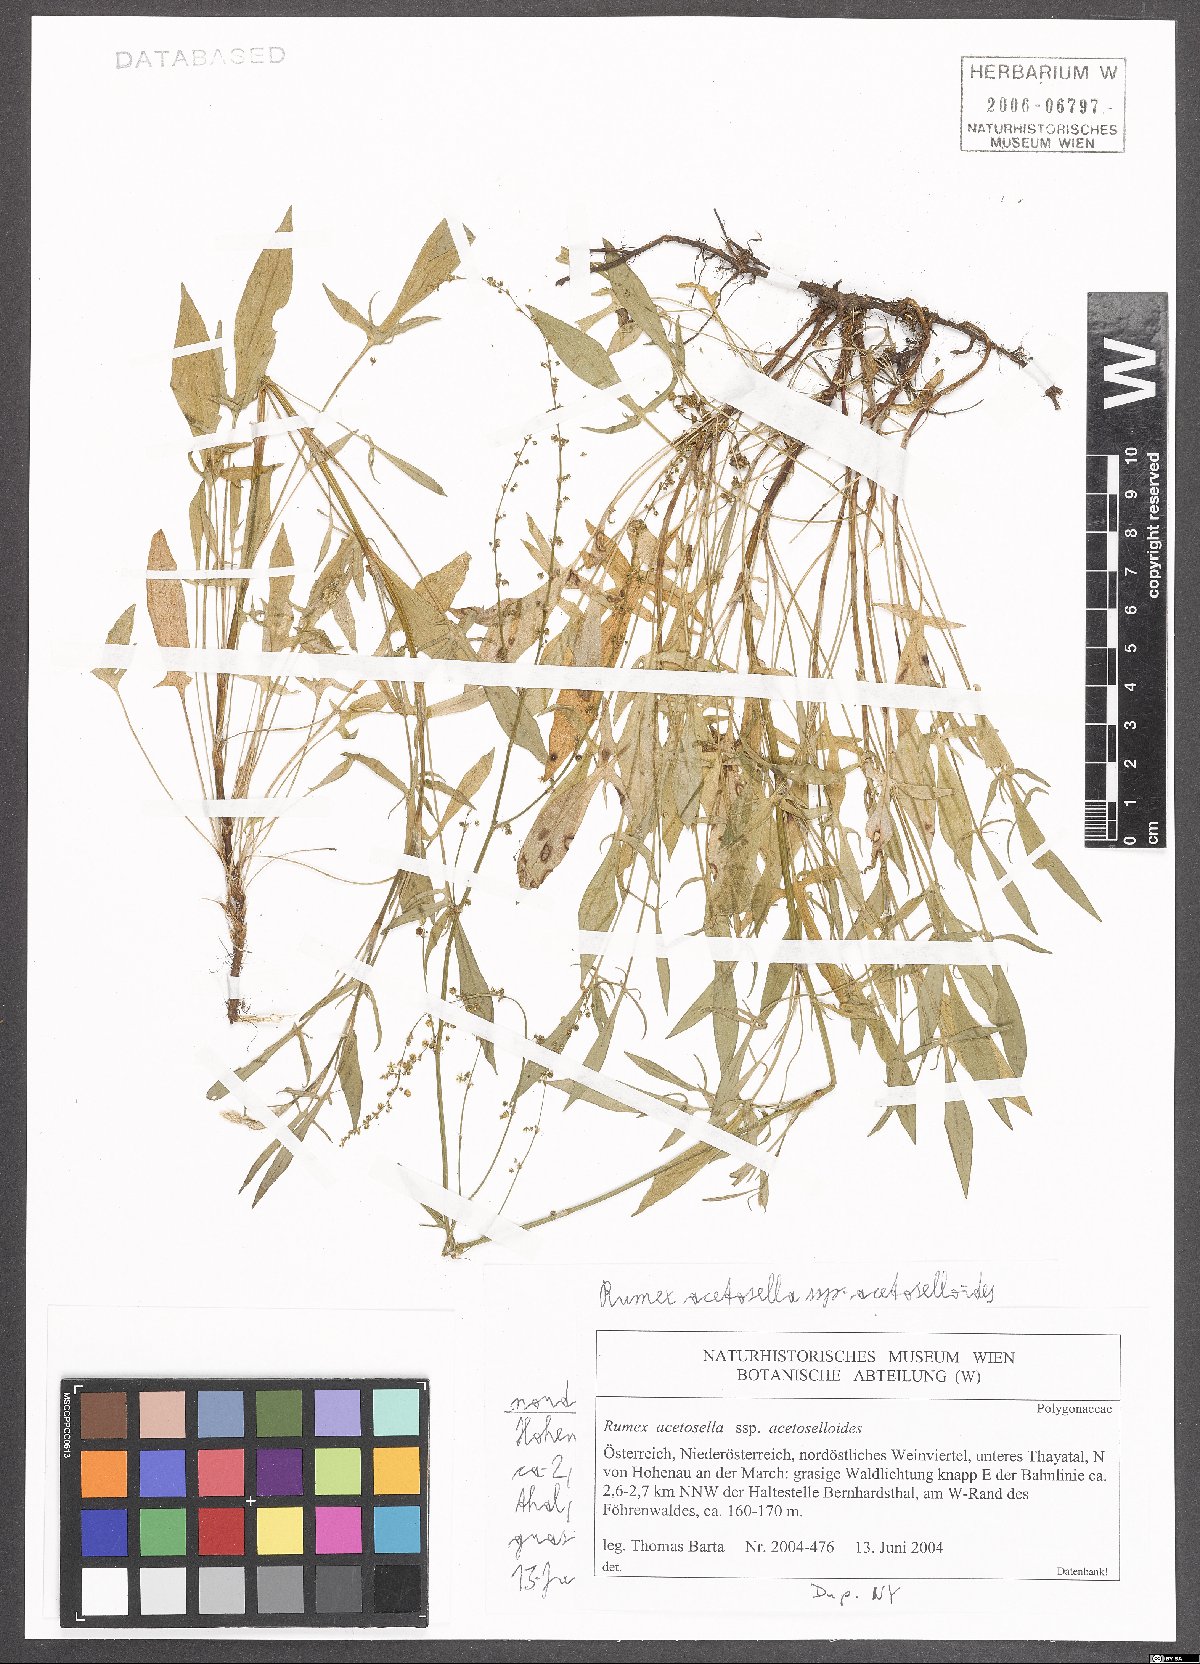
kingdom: Plantae
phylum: Tracheophyta
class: Magnoliopsida
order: Caryophyllales
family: Polygonaceae
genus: Rumex
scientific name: Rumex acetosella
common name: Common sheep sorrel
